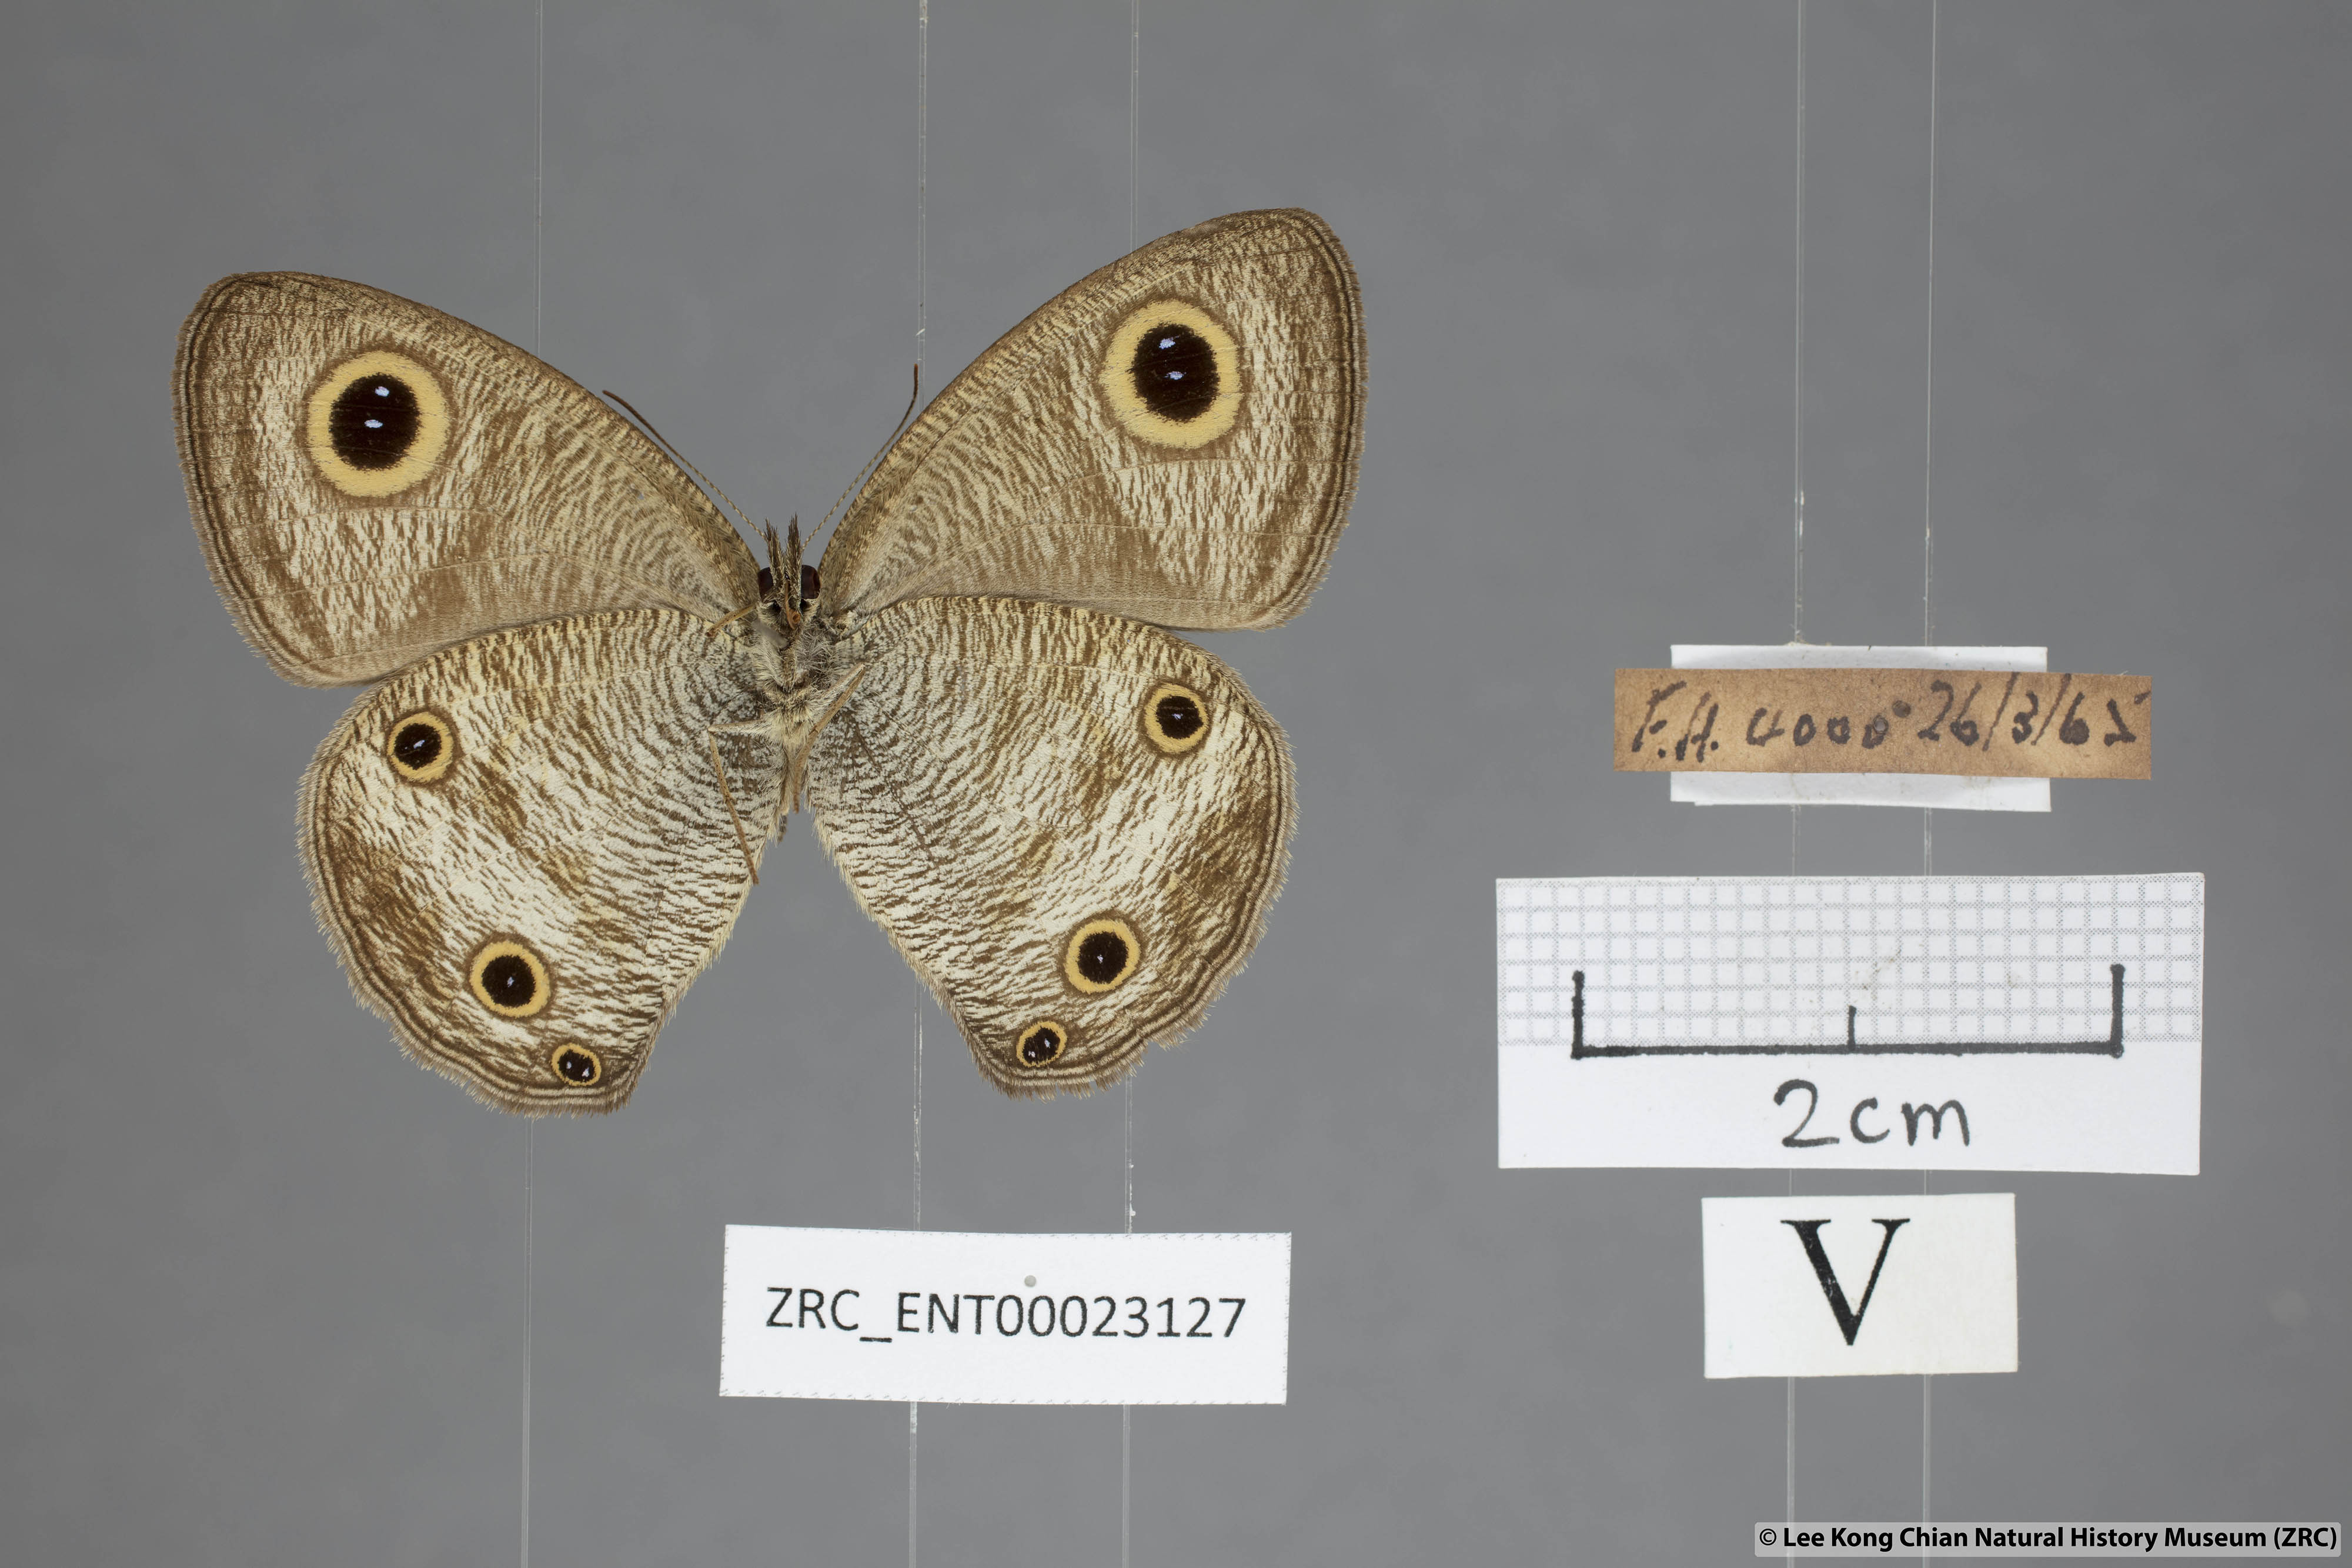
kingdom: Animalia
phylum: Arthropoda
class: Insecta
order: Lepidoptera
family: Nymphalidae
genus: Ypthima
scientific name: Ypthima pandocus
